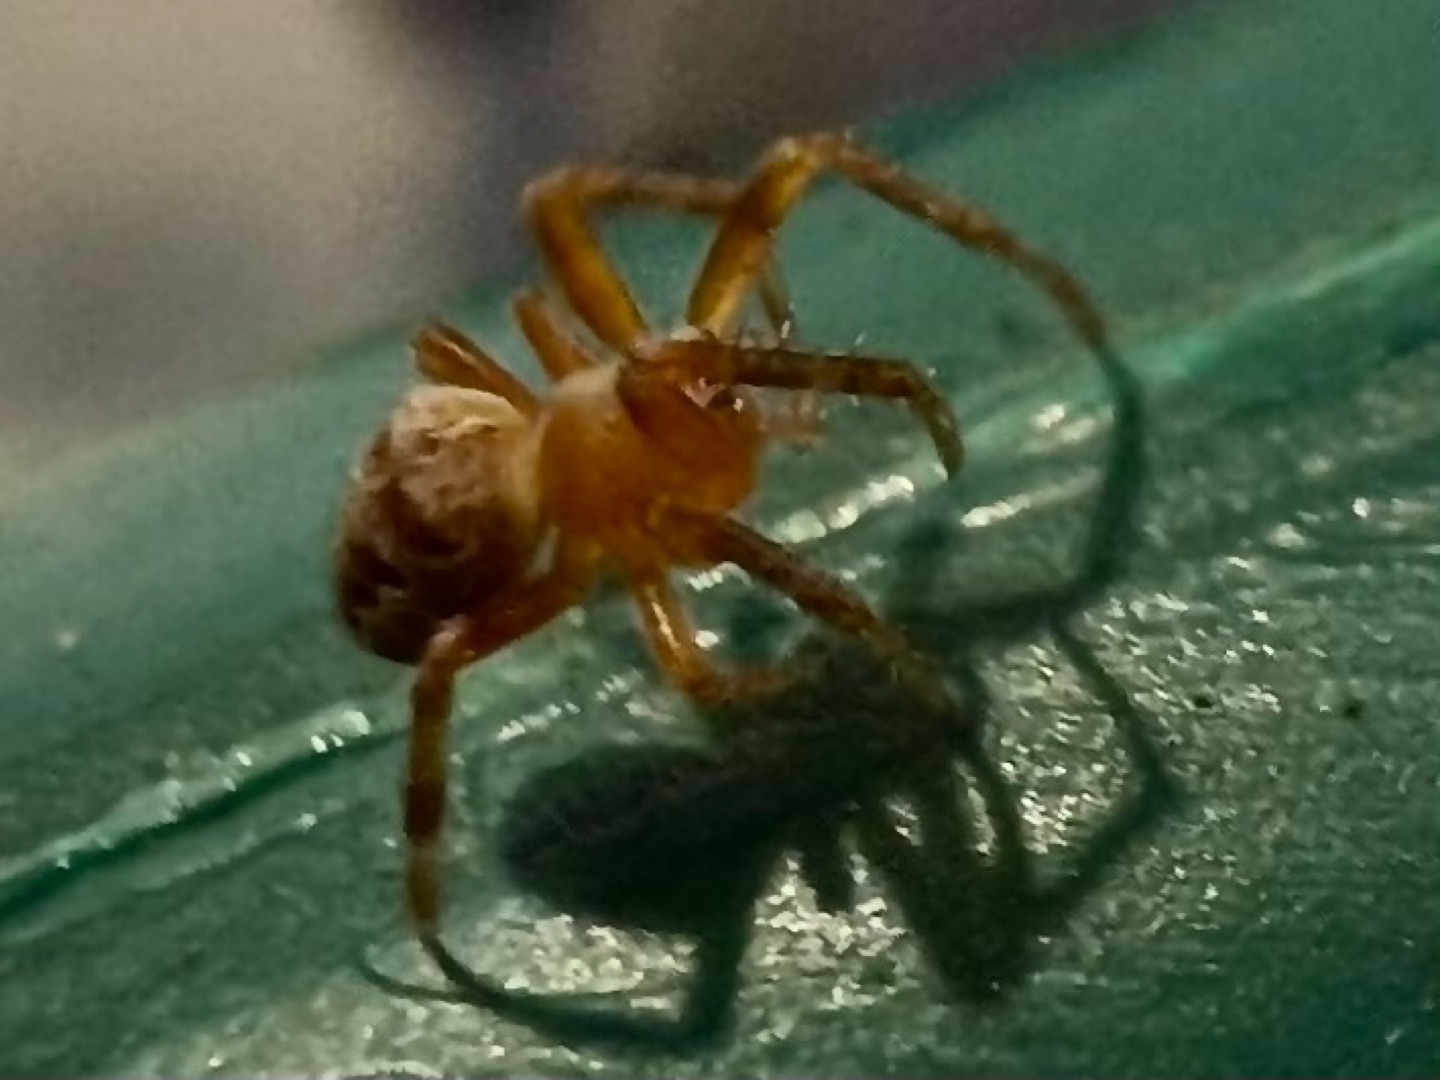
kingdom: Animalia
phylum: Arthropoda
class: Arachnida
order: Araneae
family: Araneidae
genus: Araneus
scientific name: Araneus diadematus
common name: Korsedderkop
